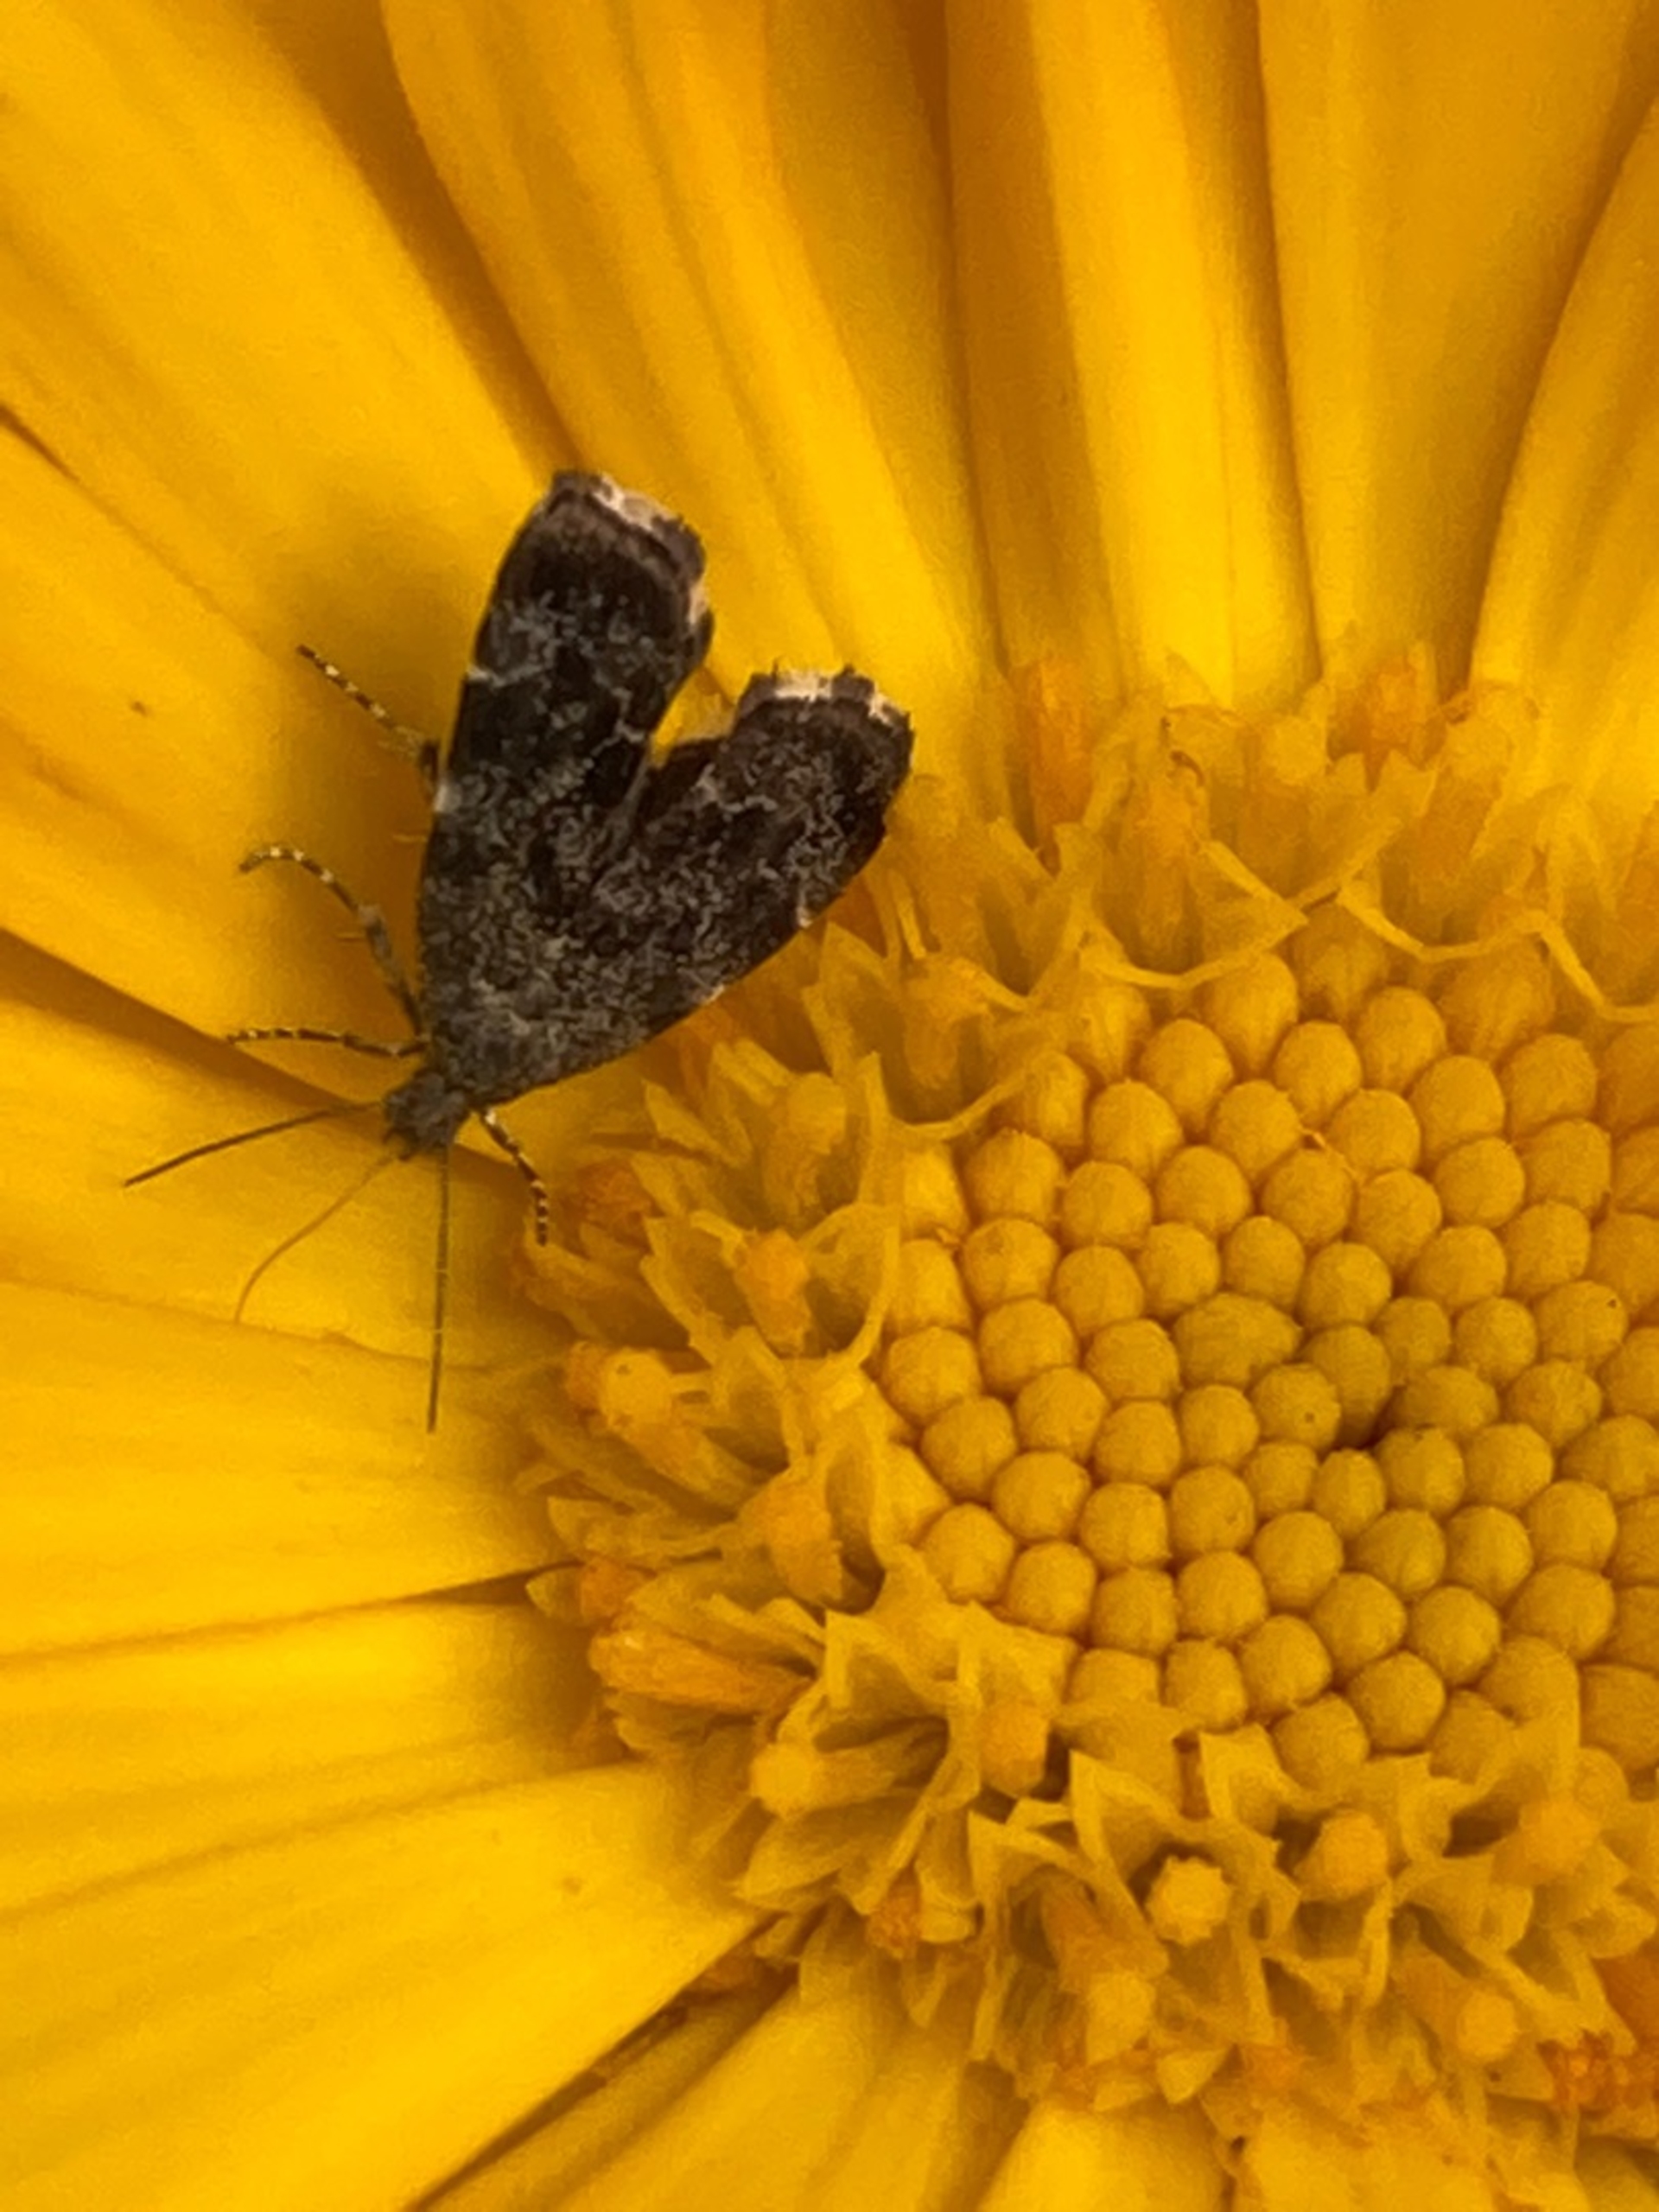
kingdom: Animalia
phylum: Arthropoda
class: Insecta
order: Lepidoptera
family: Choreutidae
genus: Anthophila
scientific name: Anthophila fabriciana
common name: Bredvinget nældevikler
